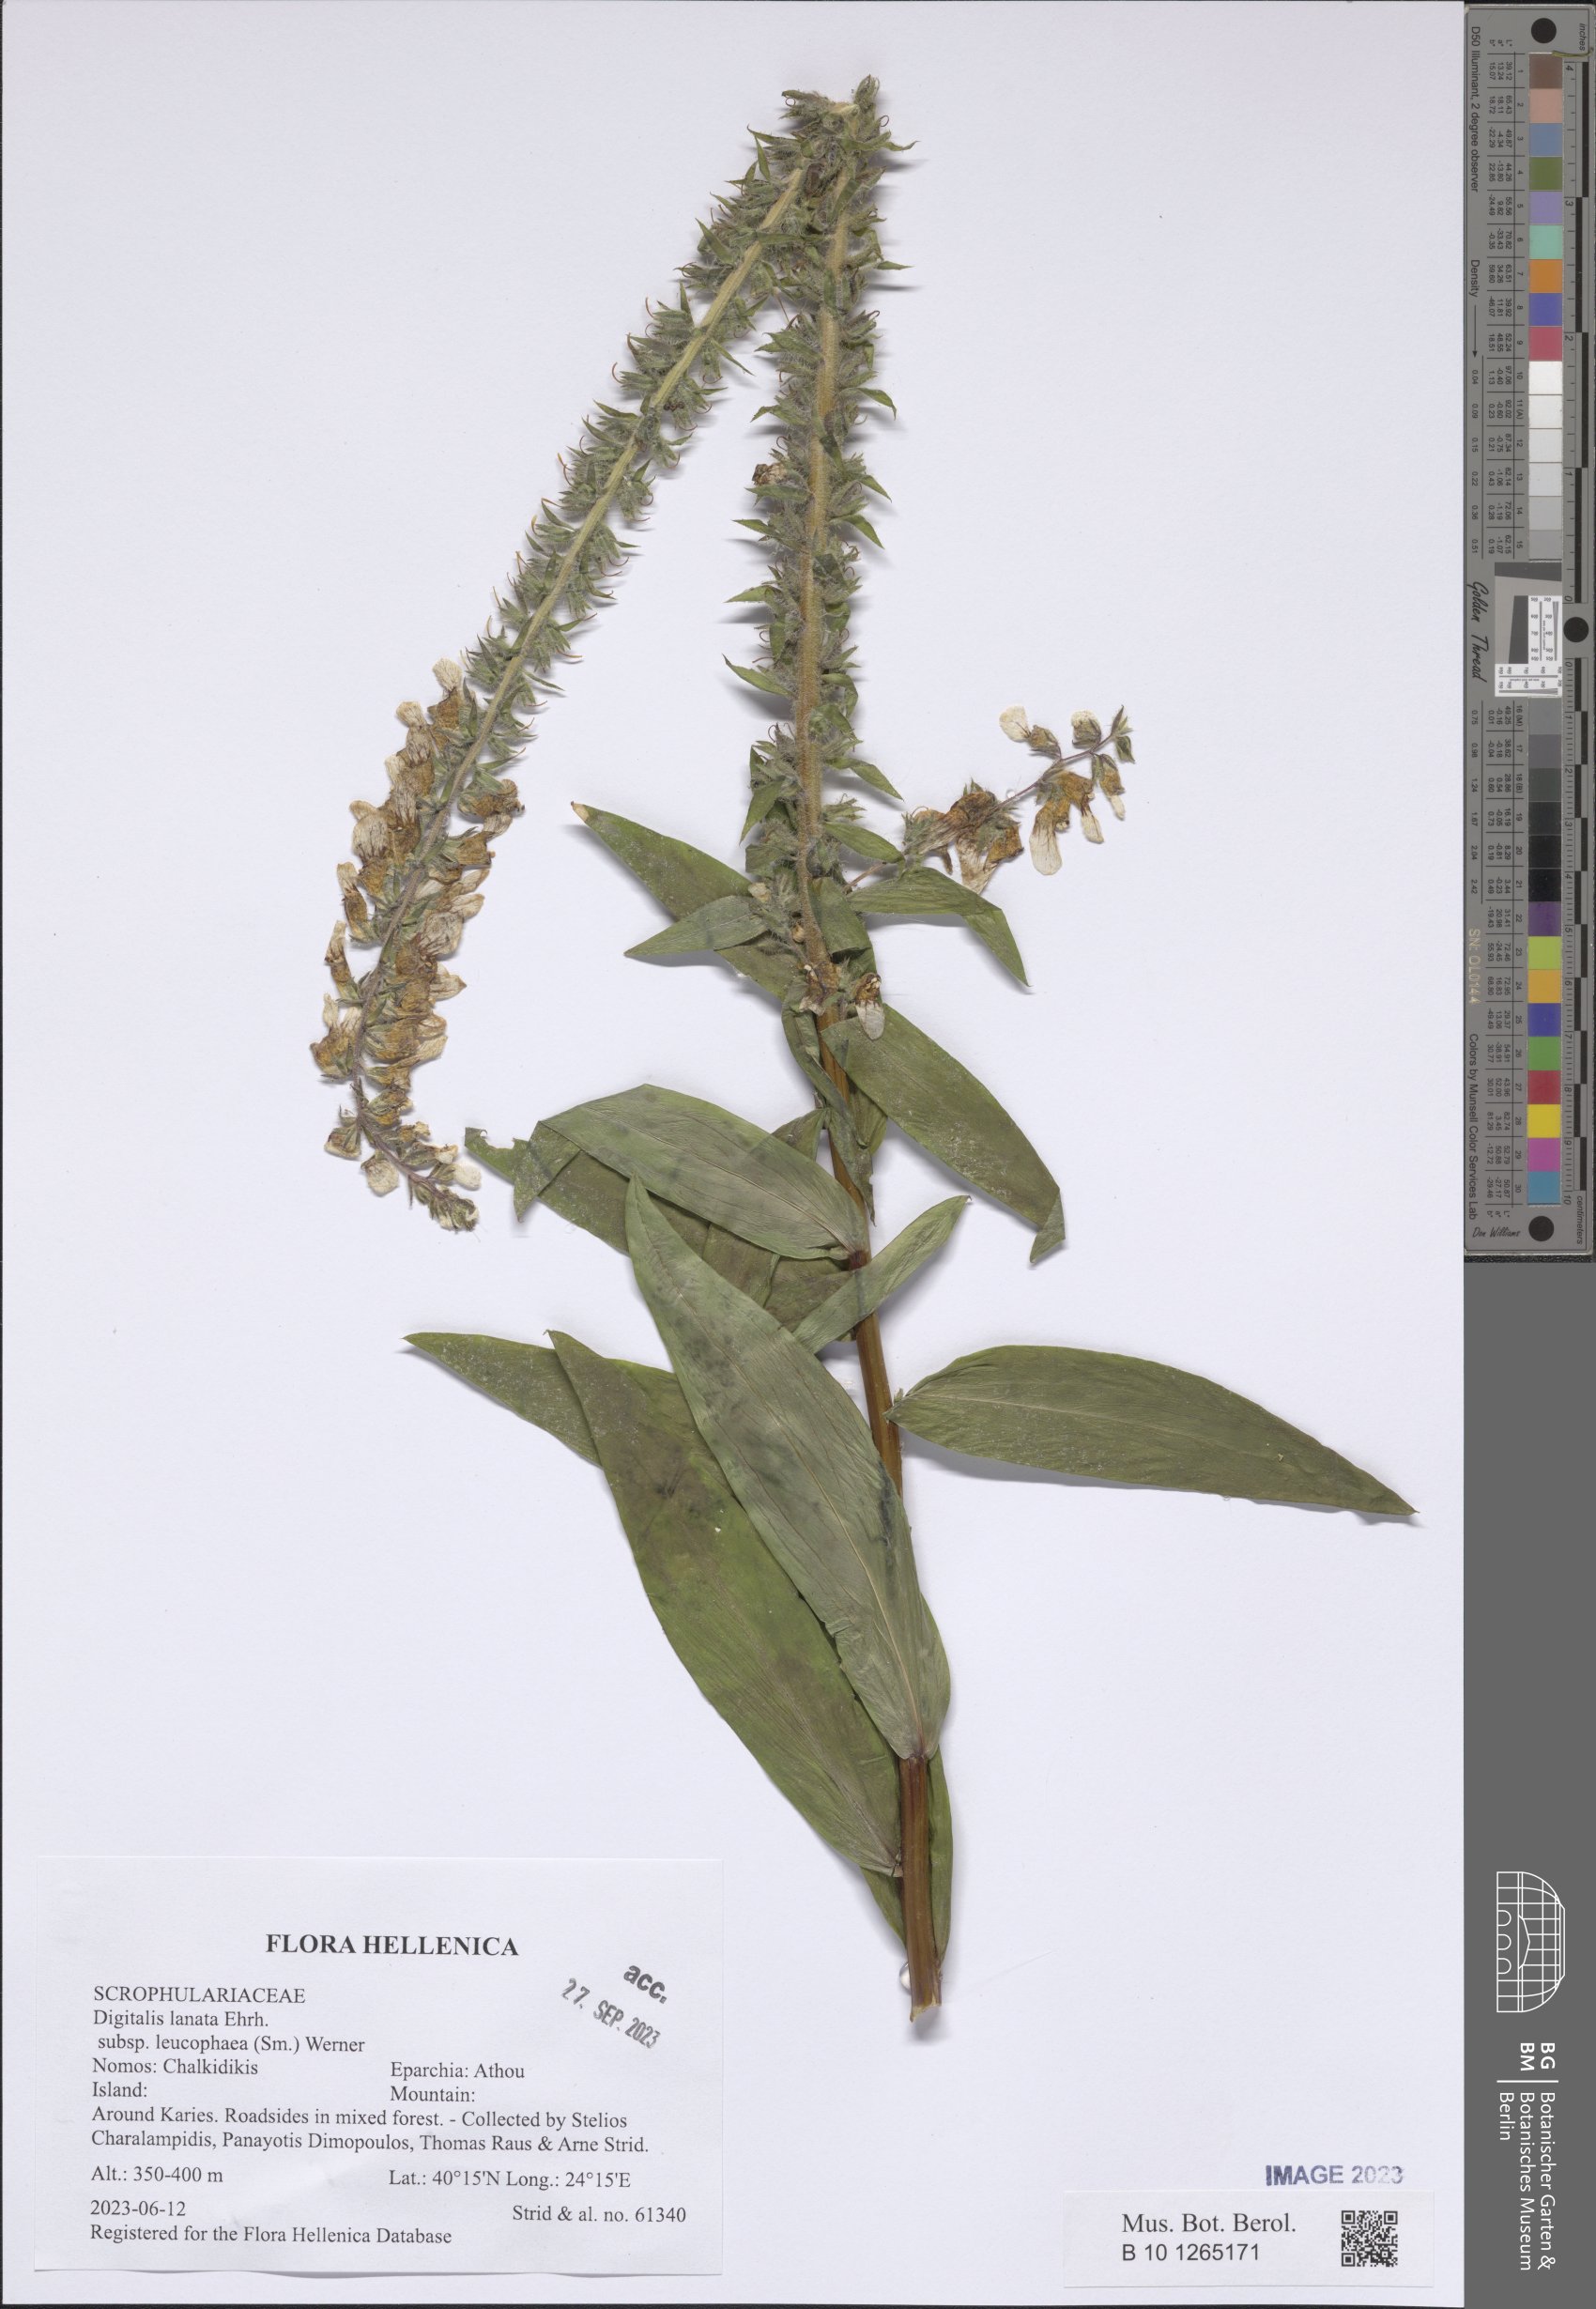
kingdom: Plantae
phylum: Tracheophyta
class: Magnoliopsida
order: Lamiales
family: Plantaginaceae
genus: Digitalis
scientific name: Digitalis lanata
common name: Grecian foxglove
